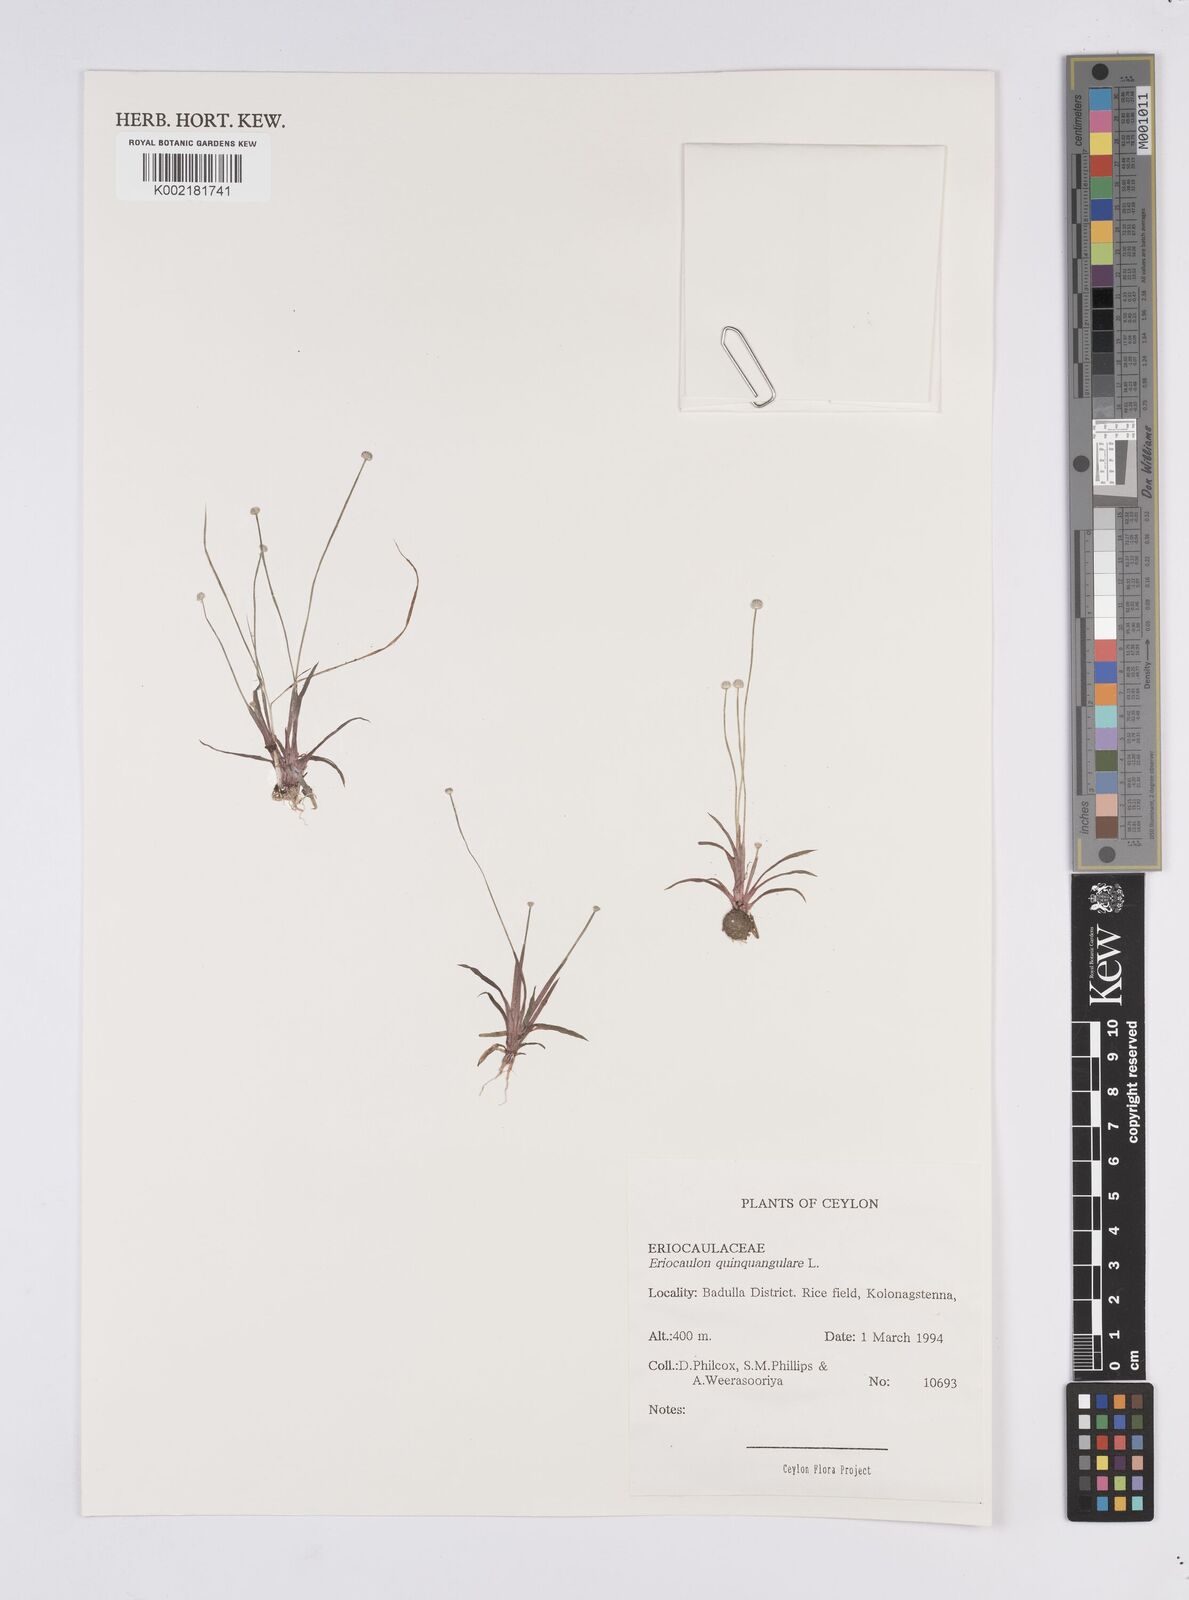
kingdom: Plantae
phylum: Tracheophyta
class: Liliopsida
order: Poales
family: Eriocaulaceae
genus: Eriocaulon
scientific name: Eriocaulon quinquangulare
